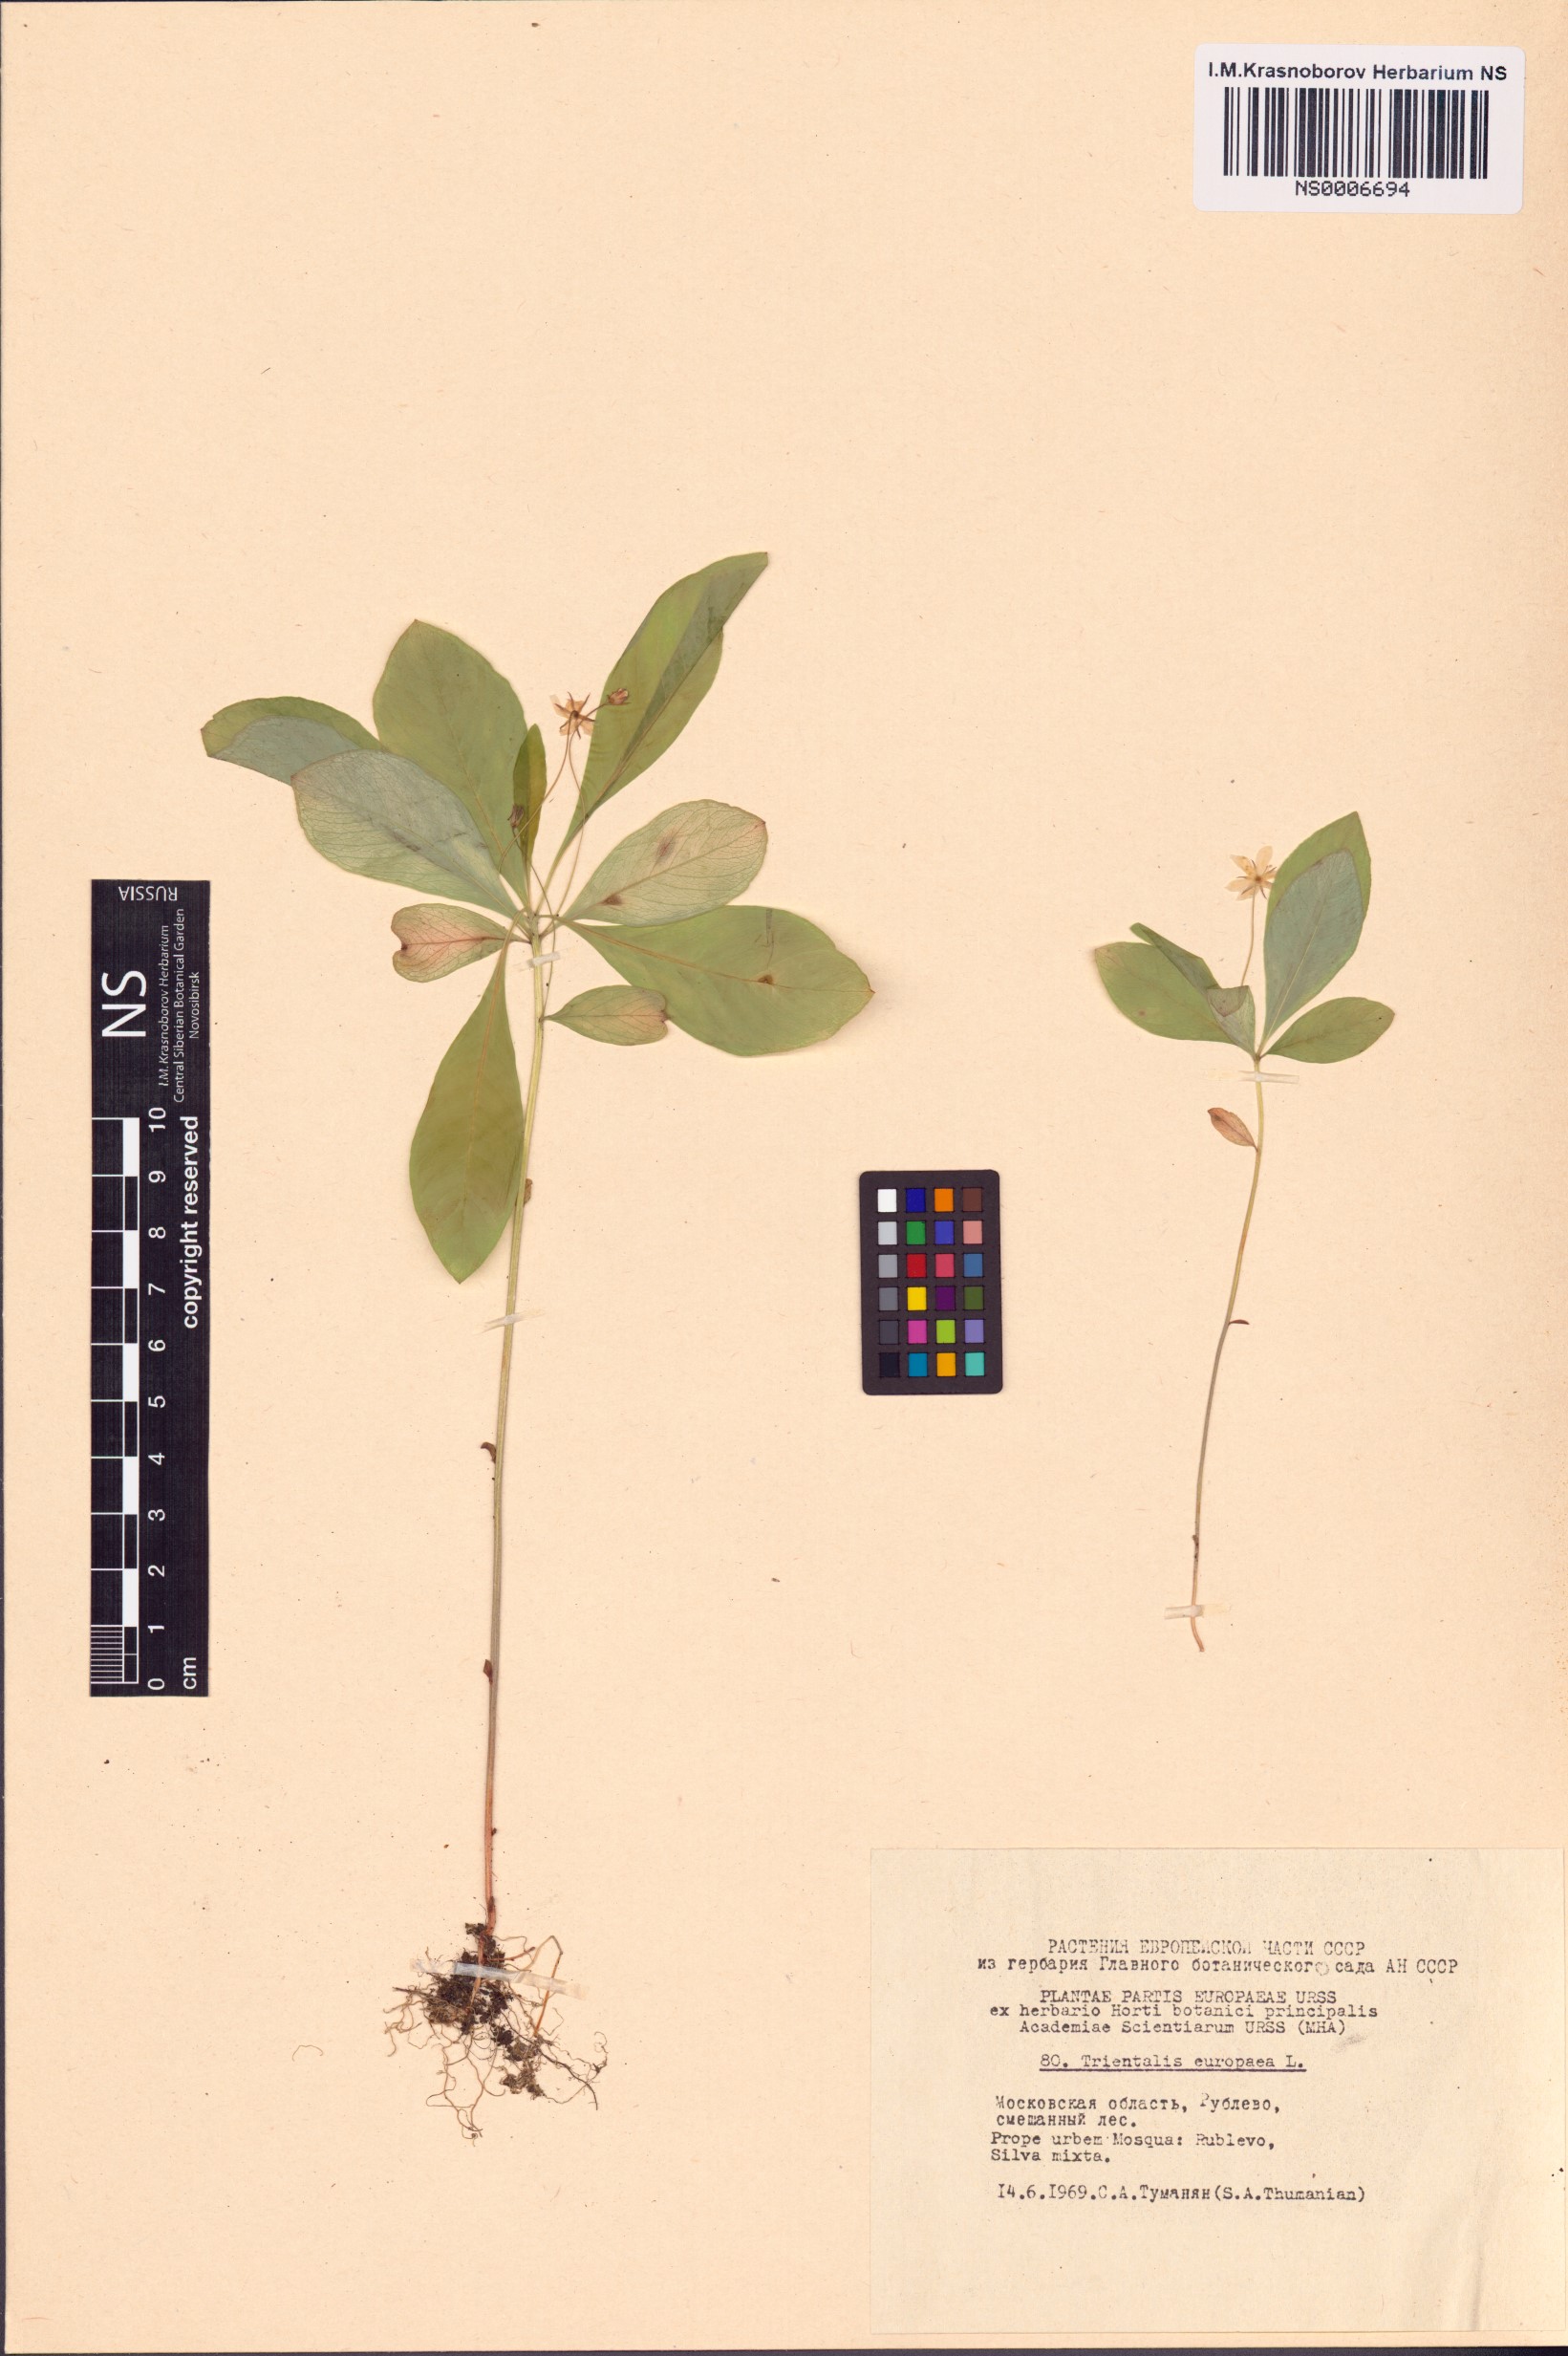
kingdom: Plantae
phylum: Tracheophyta
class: Magnoliopsida
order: Ericales
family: Primulaceae
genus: Lysimachia
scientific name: Lysimachia europaea
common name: Arctic starflower
